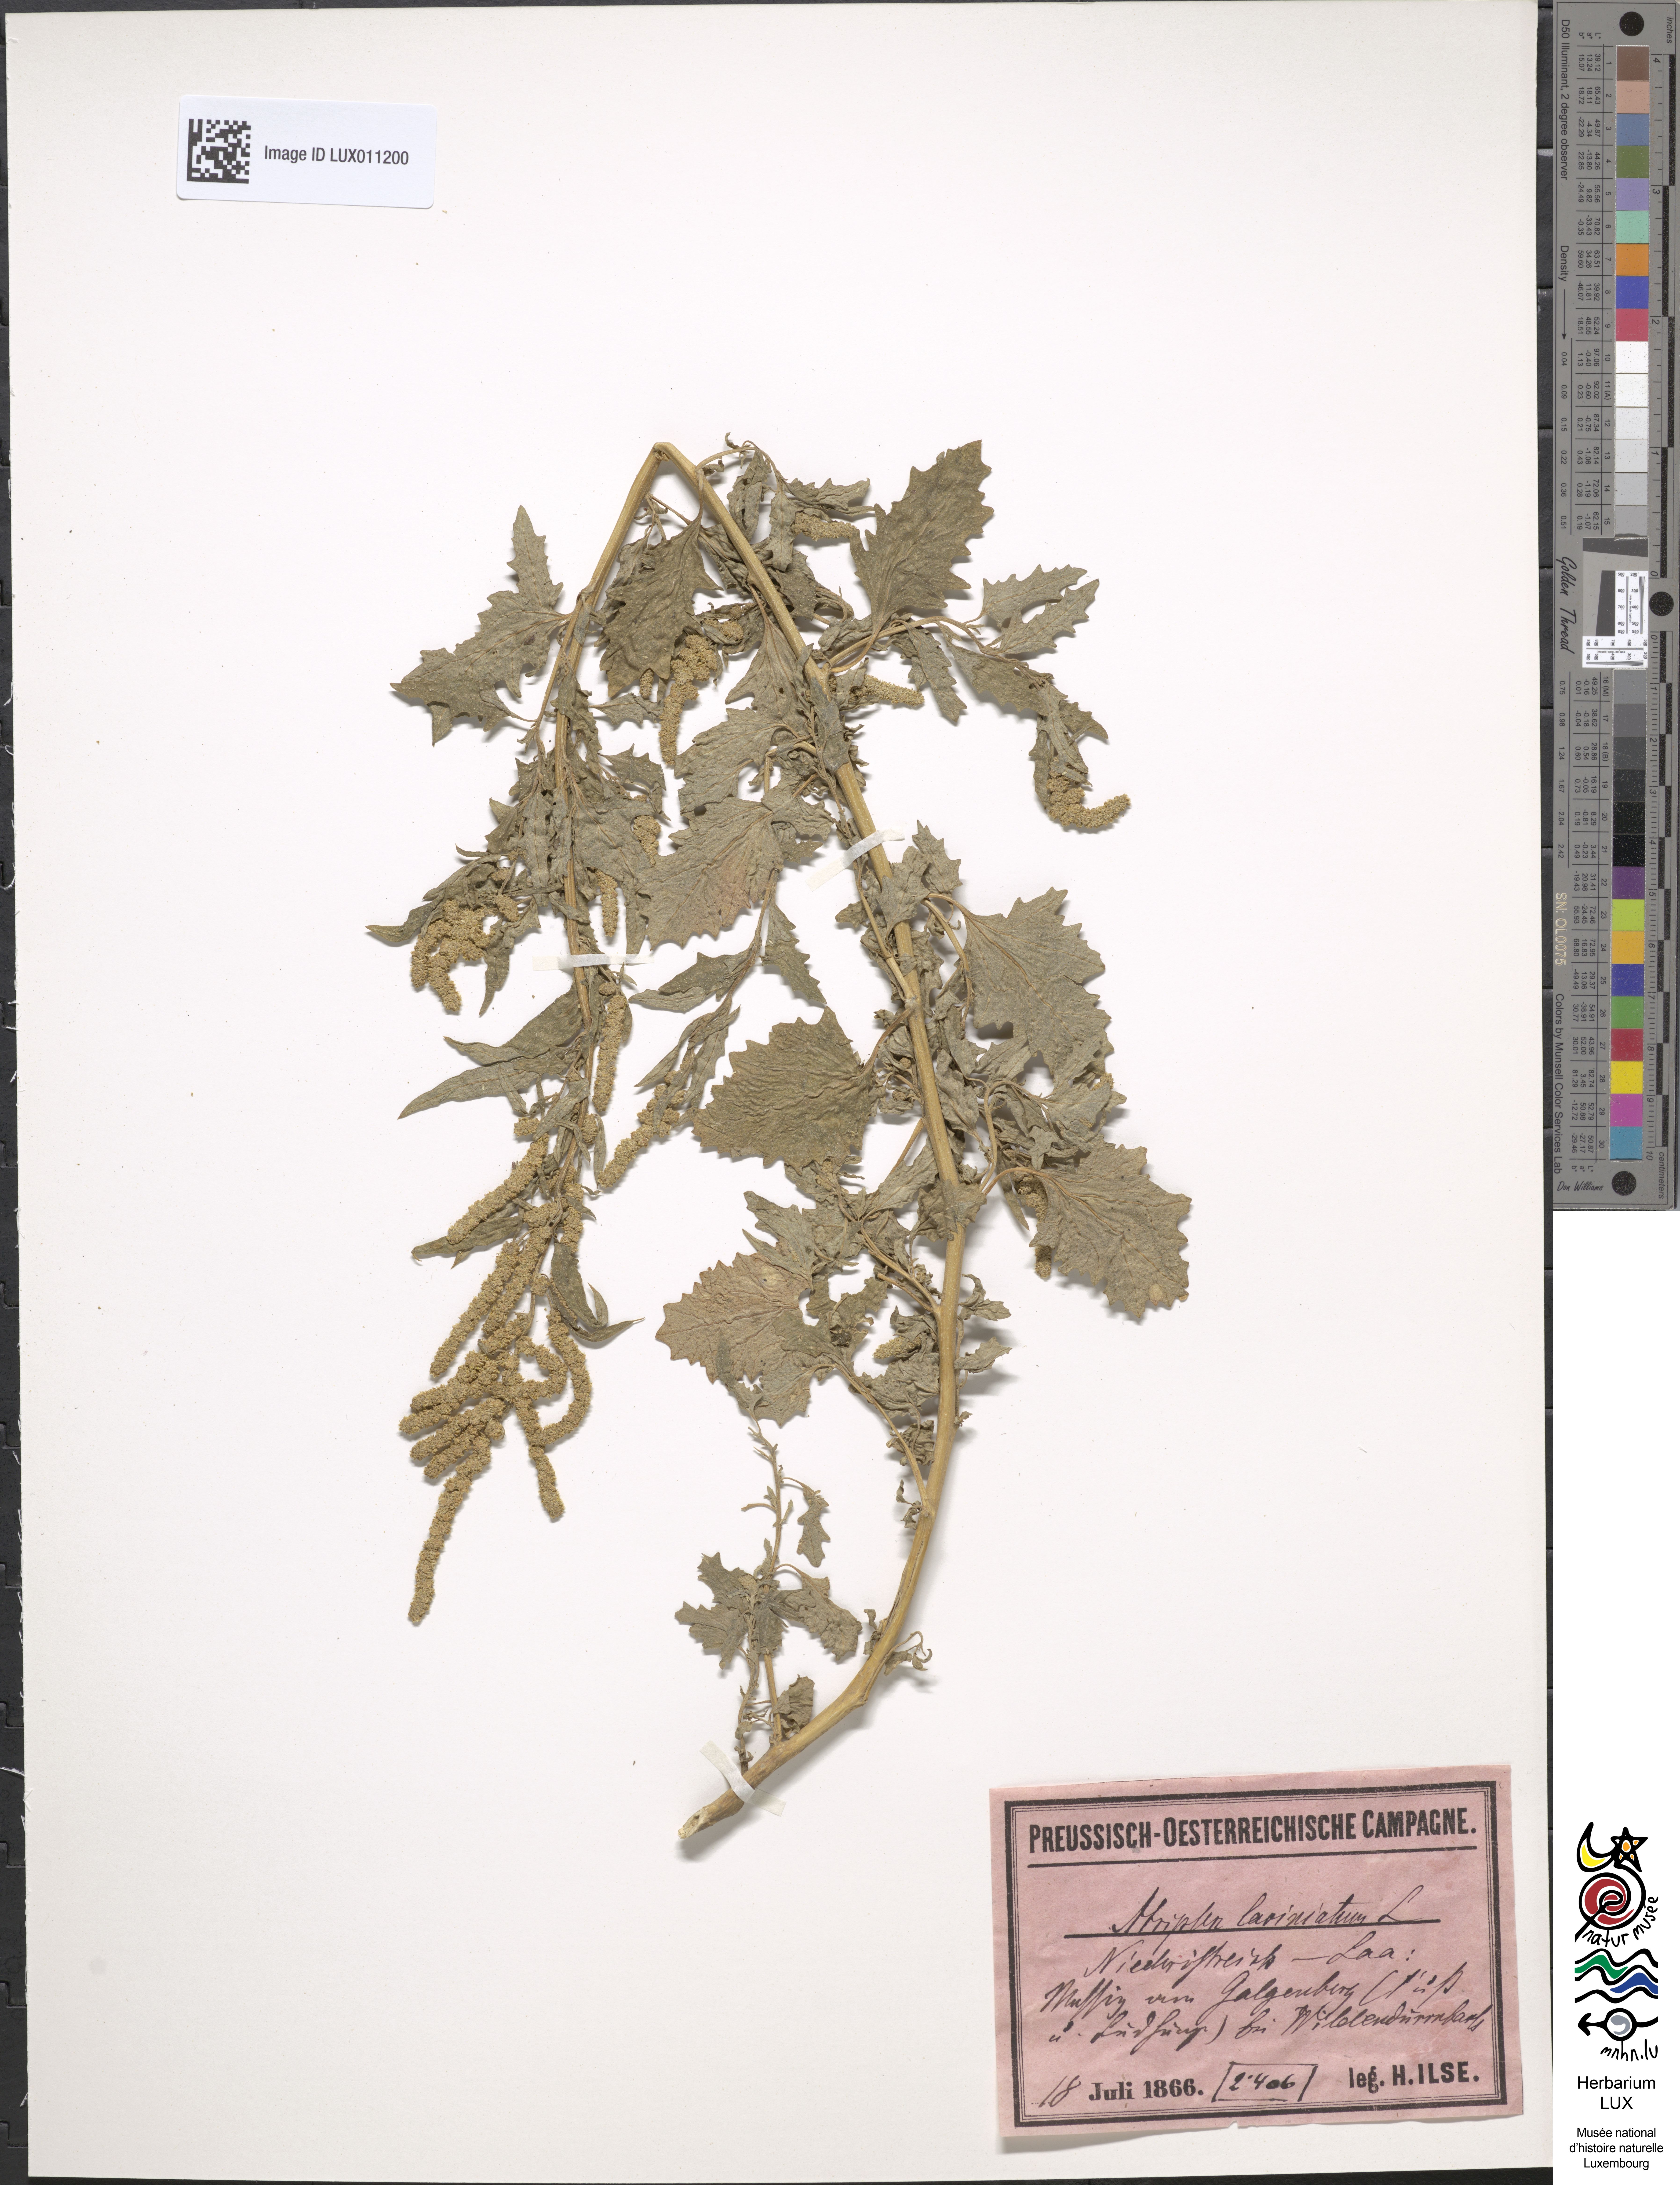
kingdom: Plantae
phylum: Tracheophyta
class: Magnoliopsida
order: Caryophyllales
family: Amaranthaceae
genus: Atriplex
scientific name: Atriplex laciniata
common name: Frosted orache
